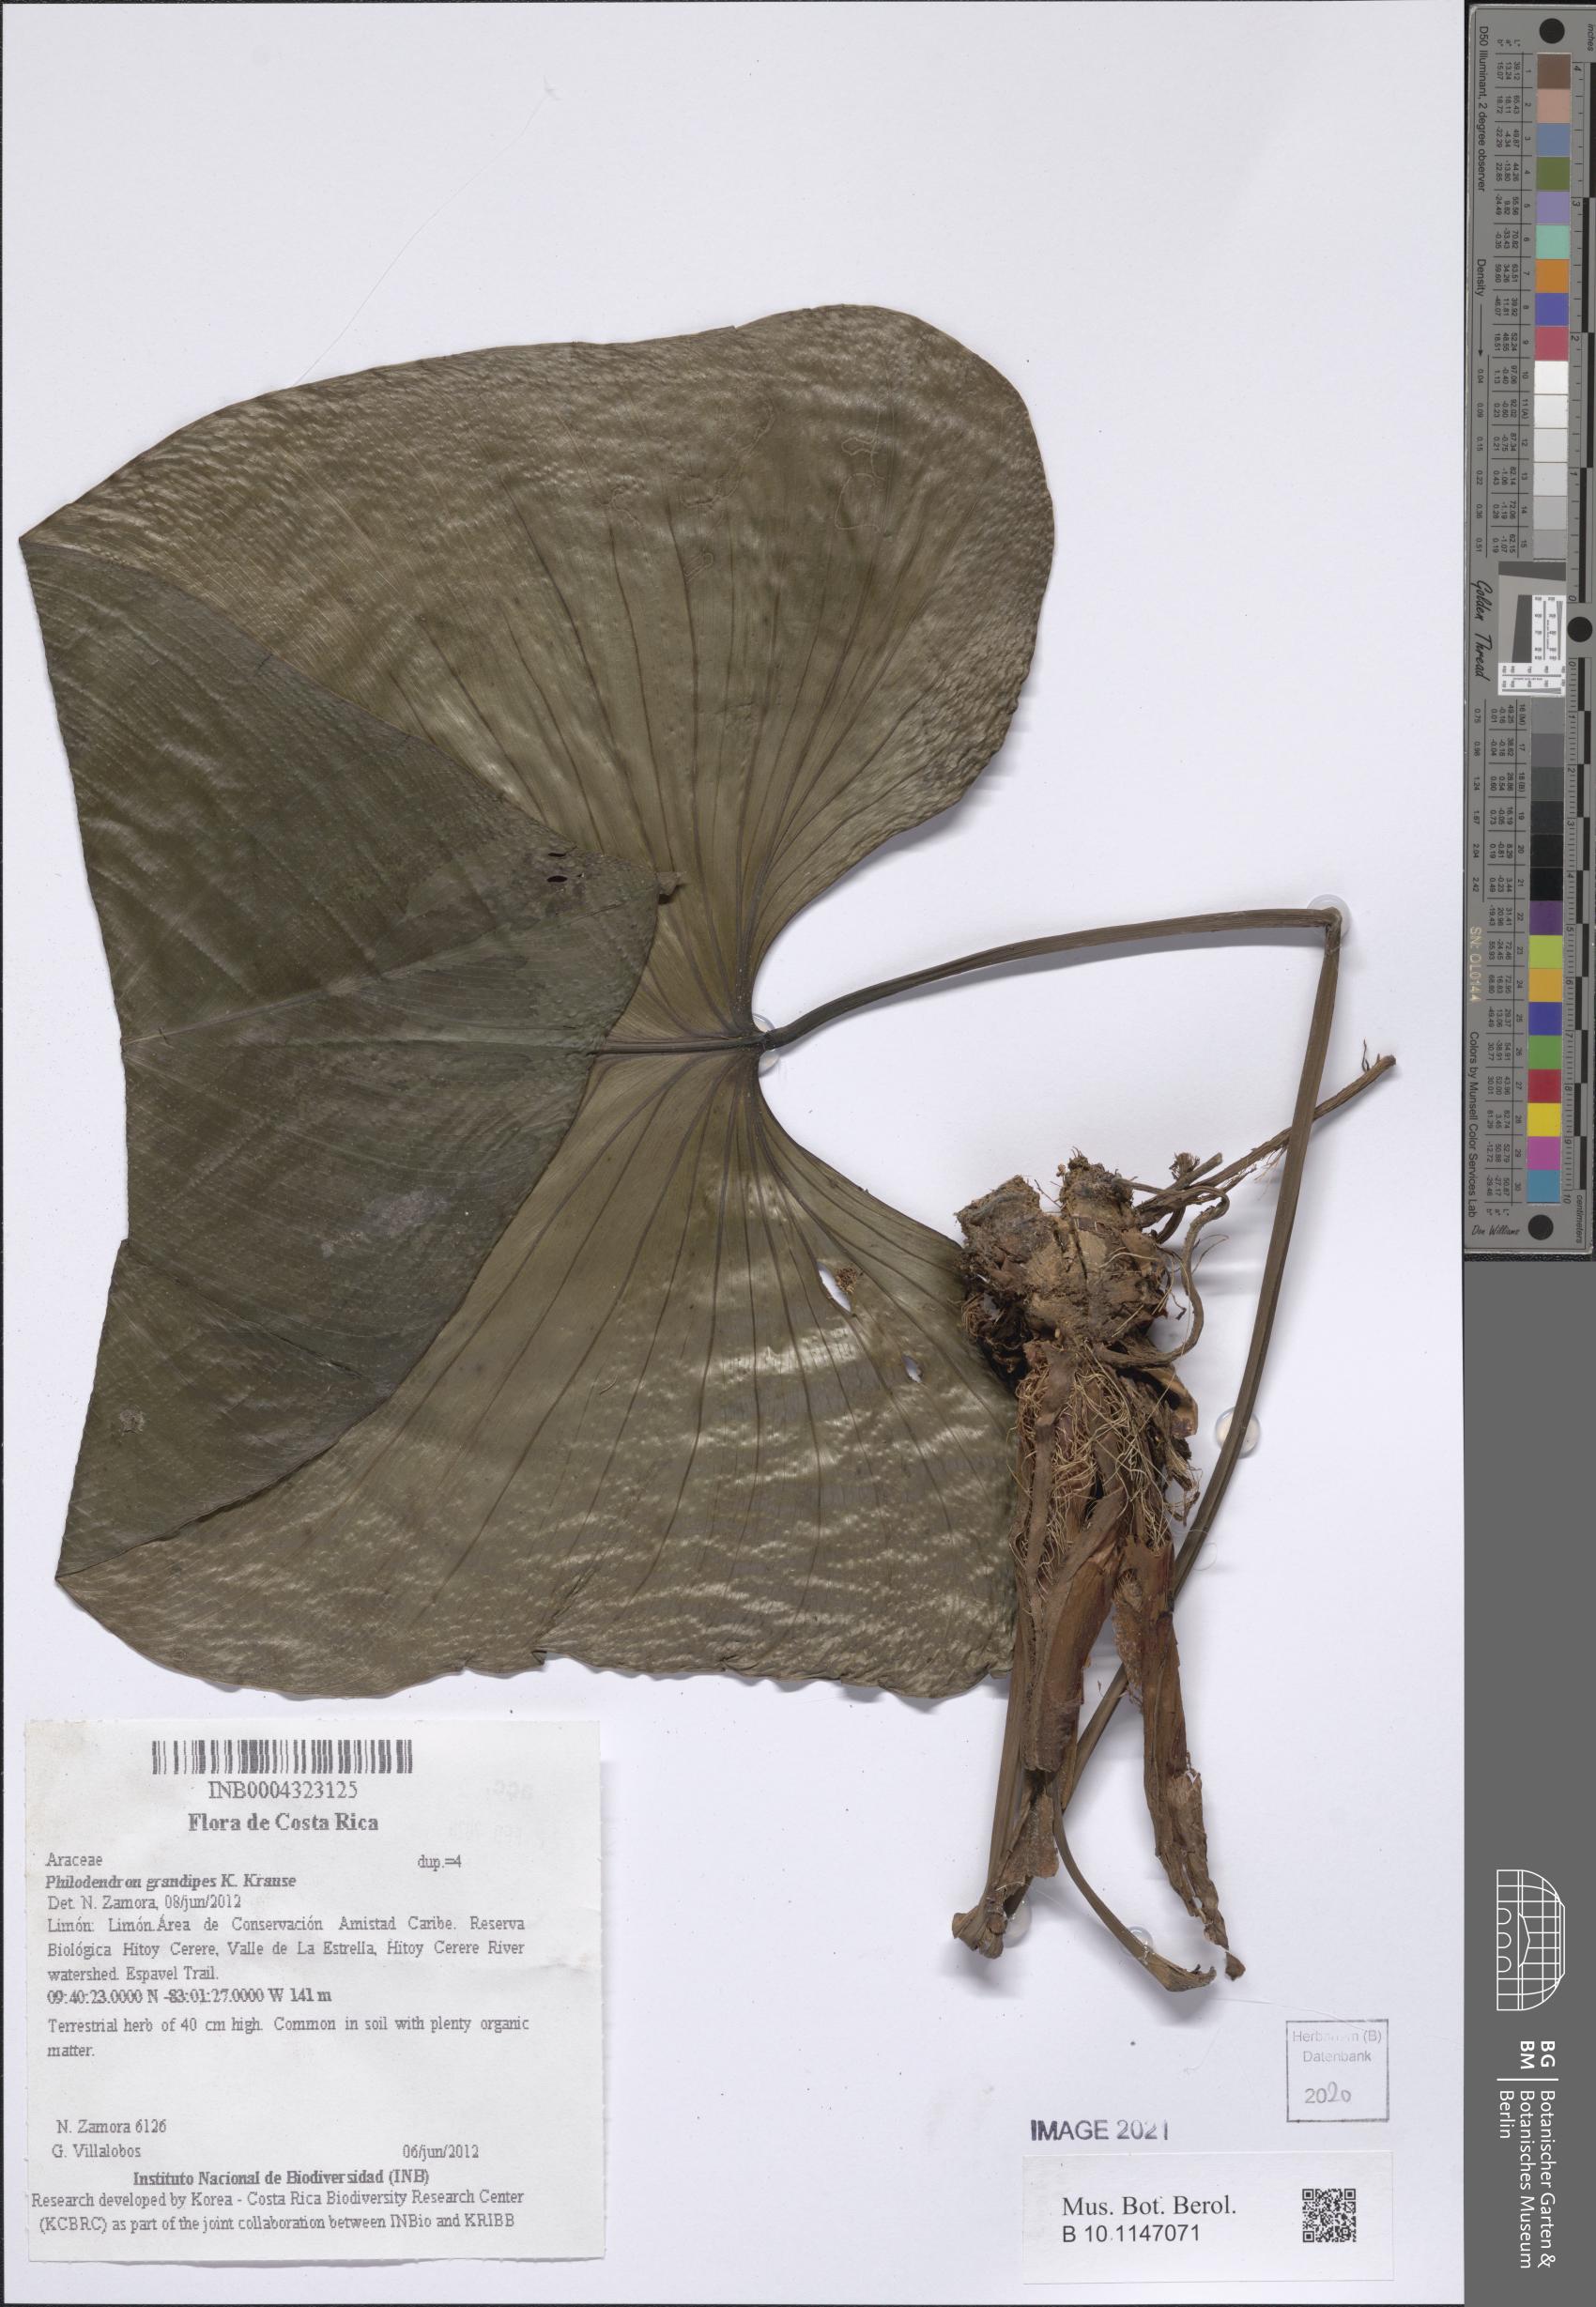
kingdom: Plantae
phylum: Tracheophyta
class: Liliopsida
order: Alismatales
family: Araceae
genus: Philodendron
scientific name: Philodendron grandipes
